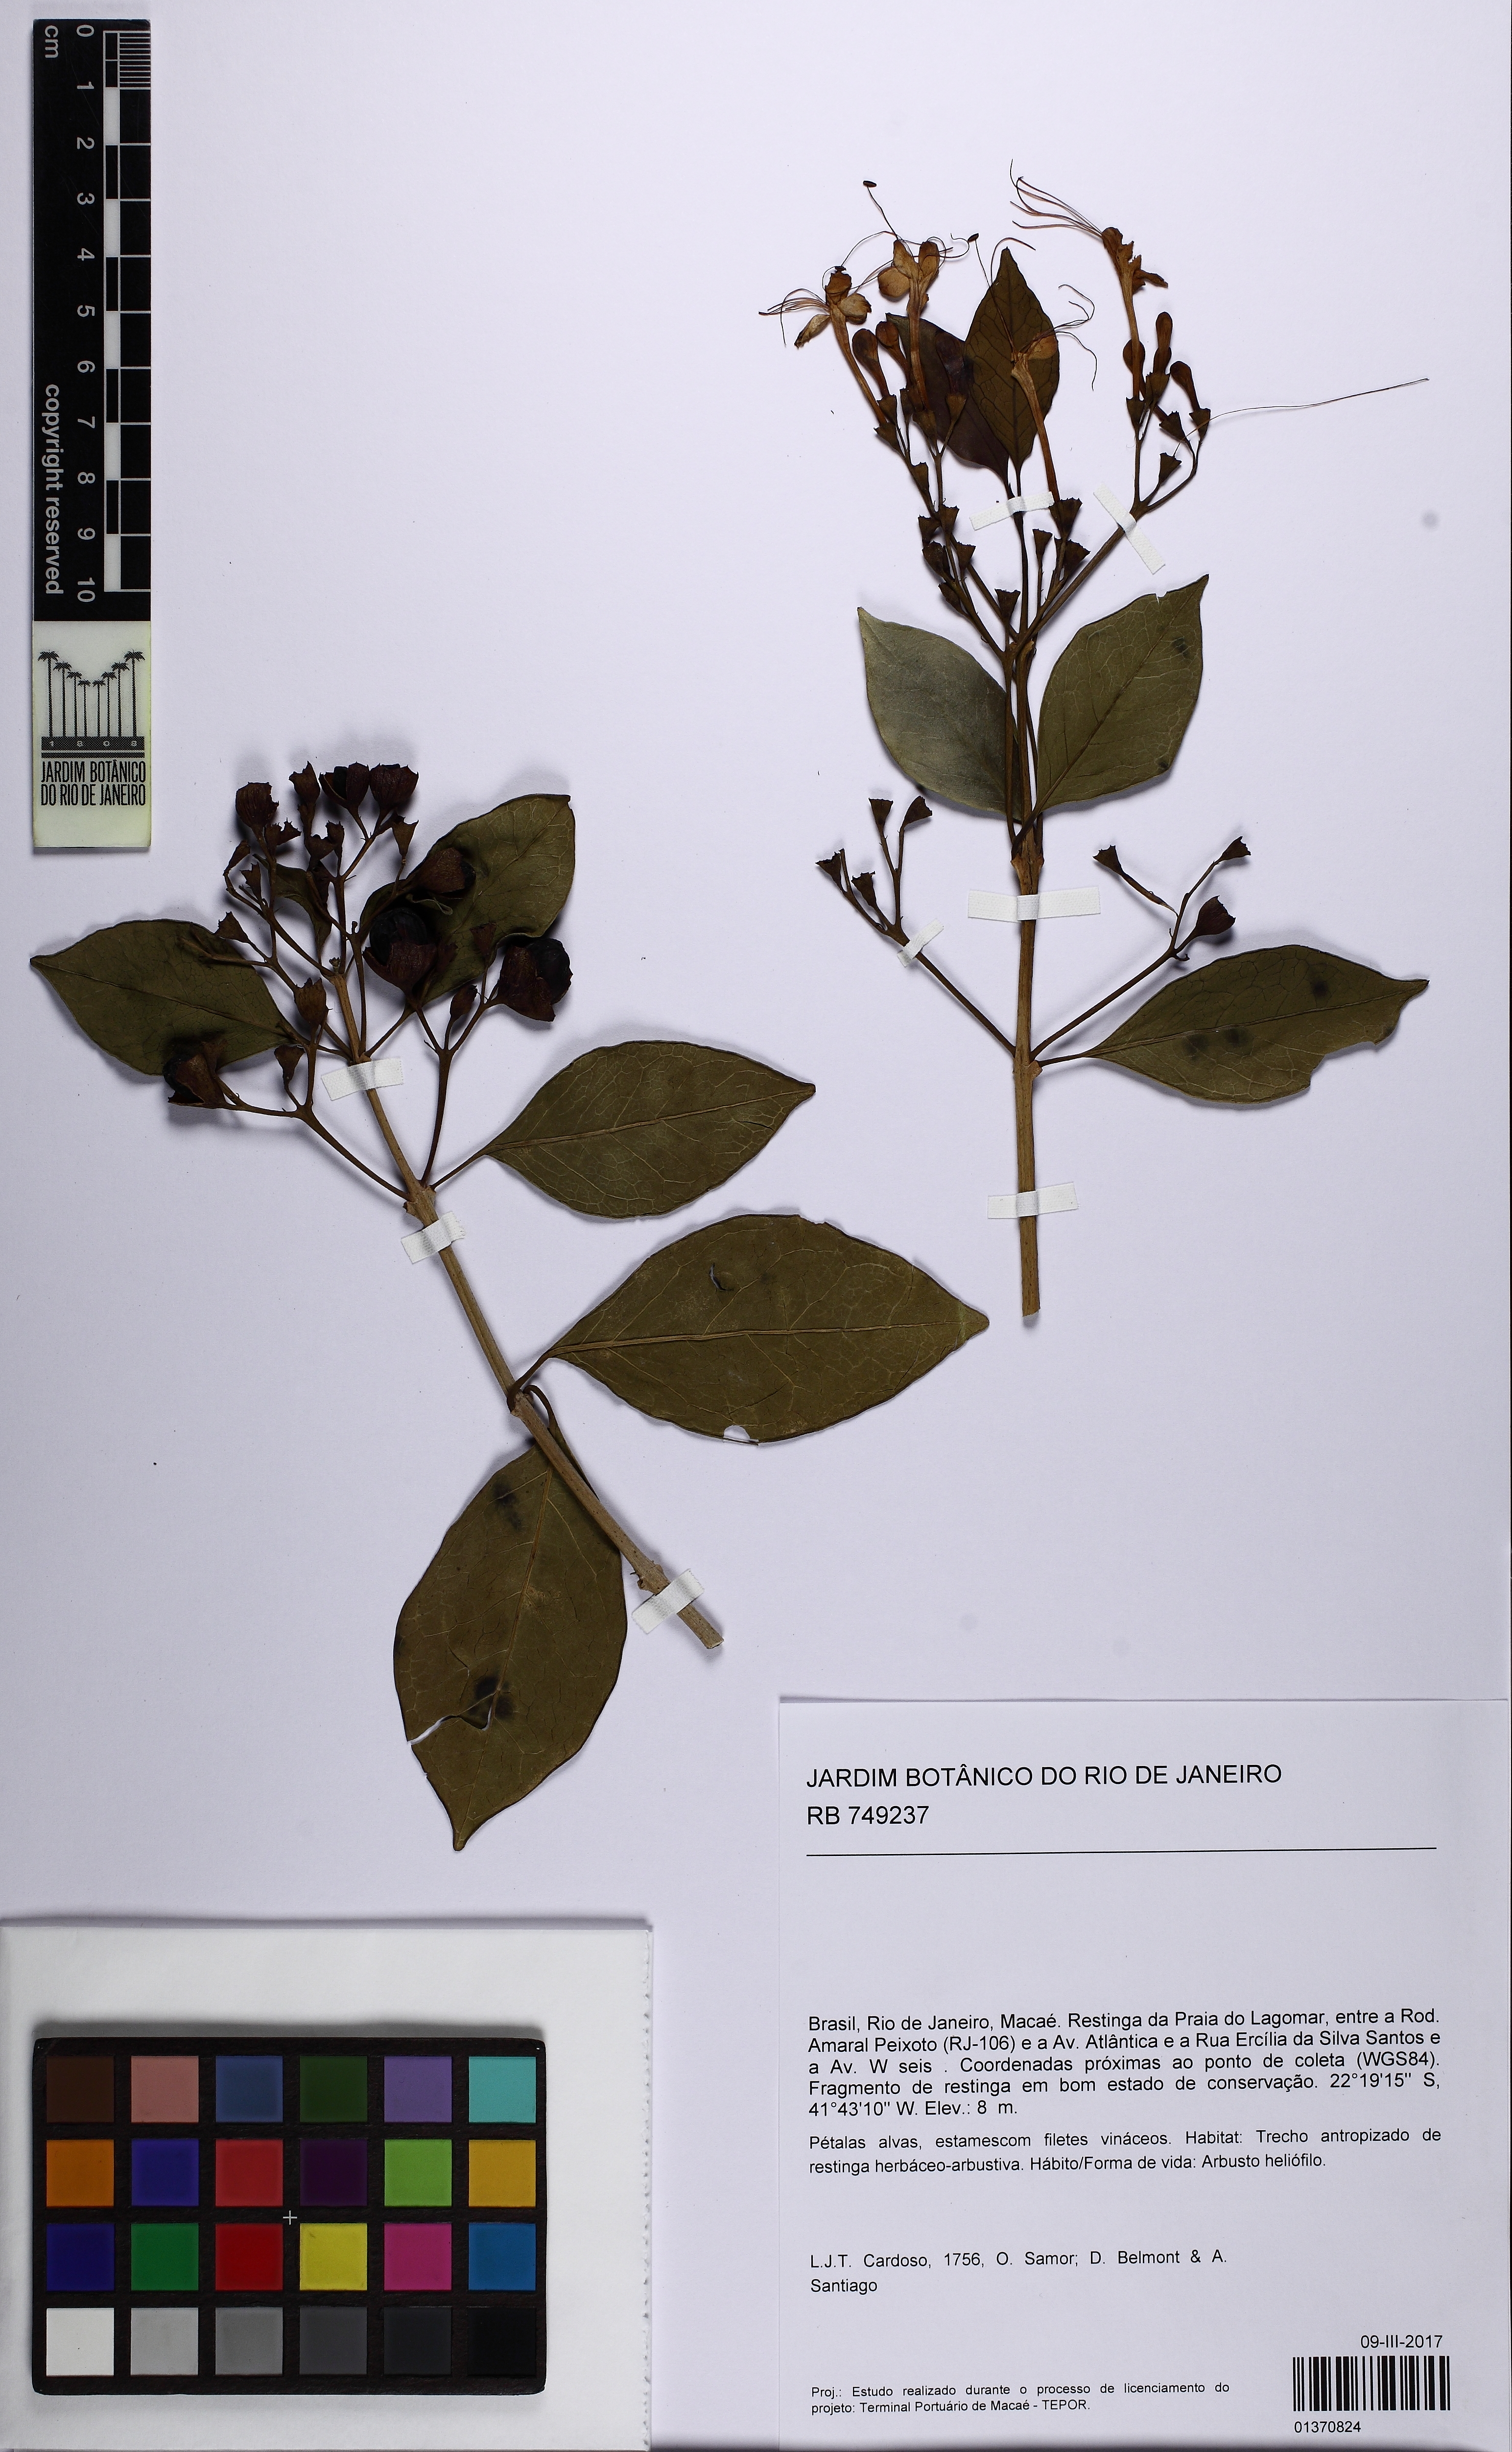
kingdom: Plantae
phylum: Tracheophyta
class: Magnoliopsida
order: Lamiales
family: Lamiaceae
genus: Aegiphila
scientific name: Aegiphila
